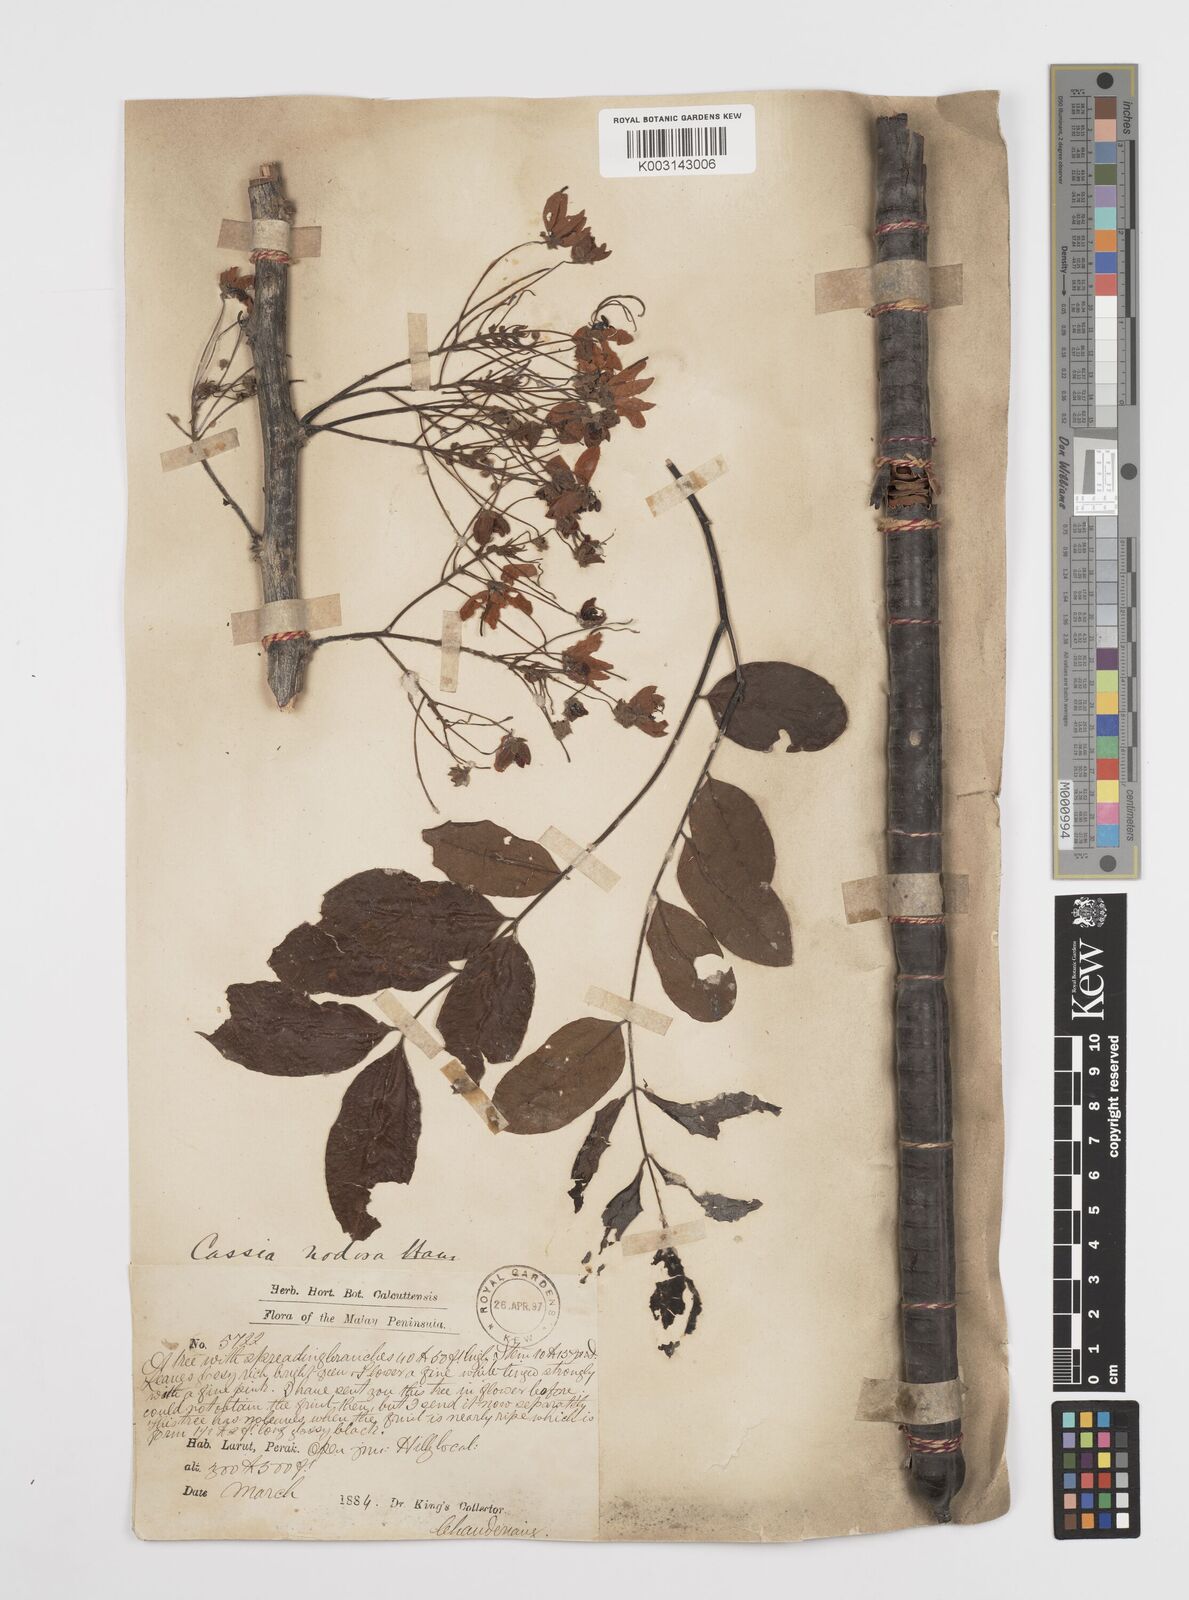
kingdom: Plantae
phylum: Tracheophyta
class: Magnoliopsida
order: Fabales
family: Fabaceae
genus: Cassia
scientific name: Cassia javanica
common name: Apple blossom
